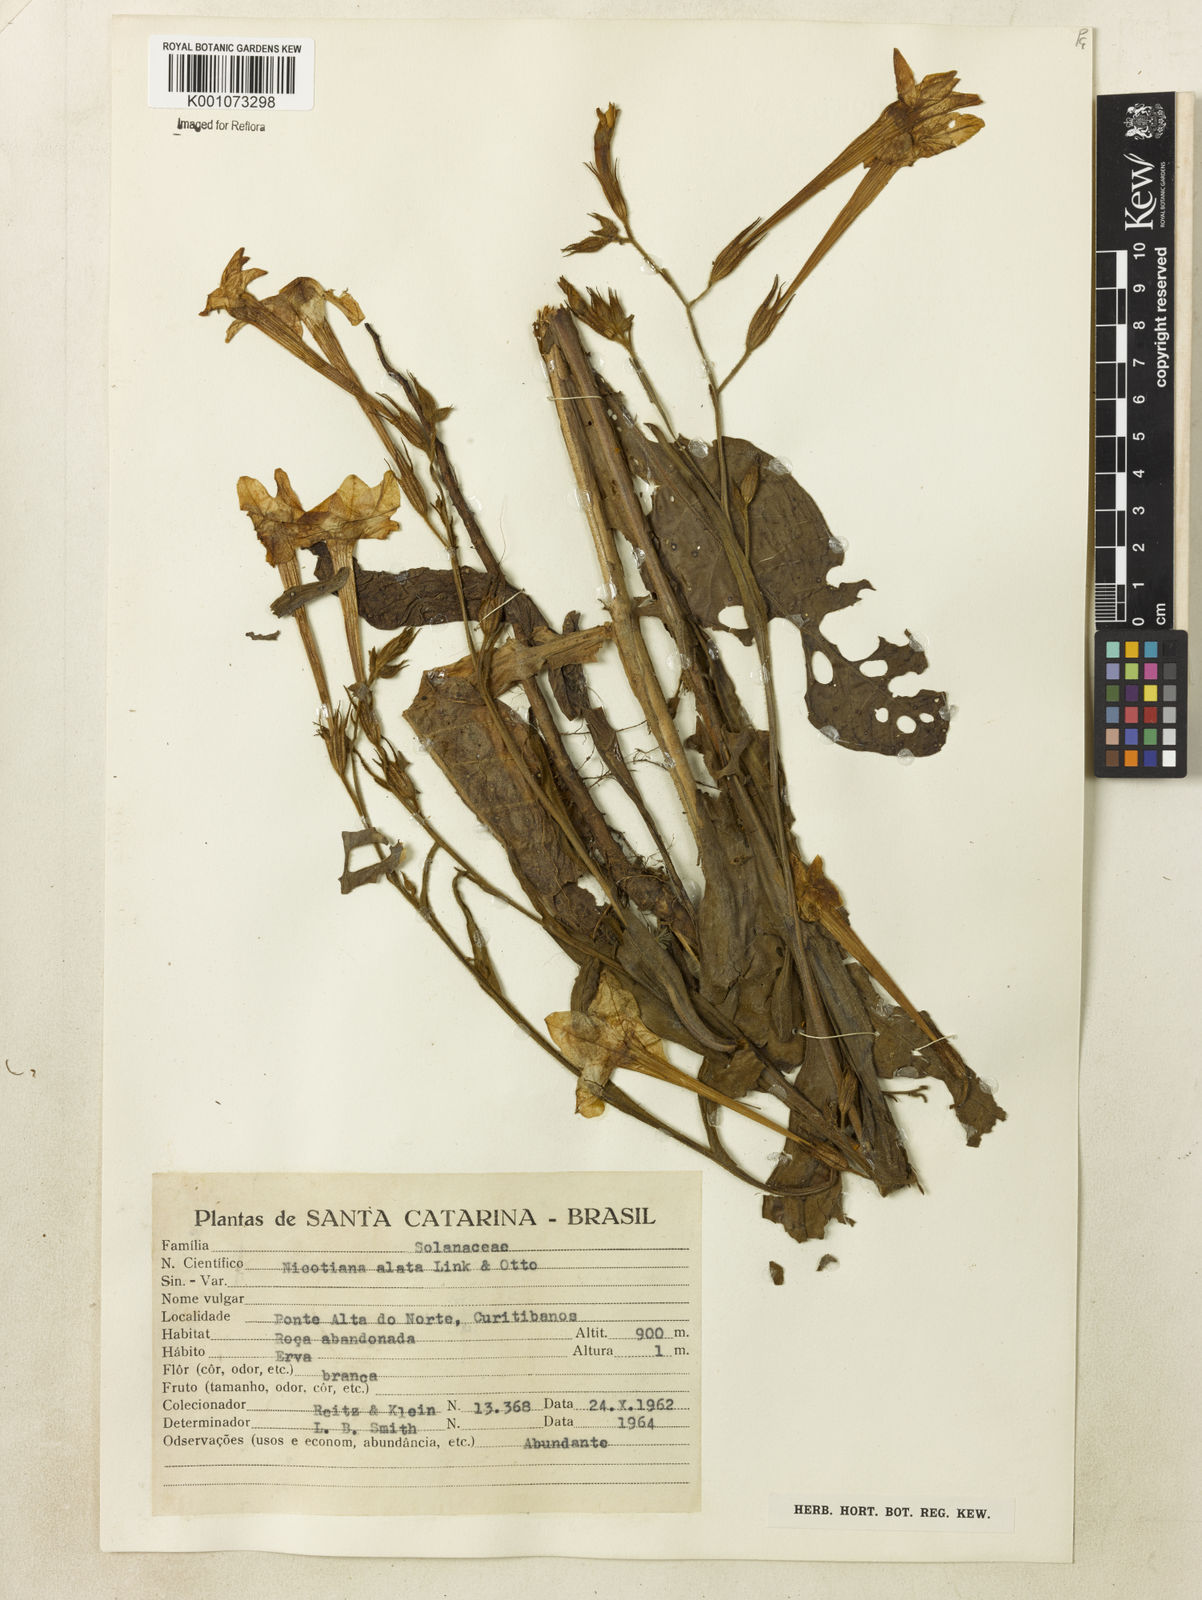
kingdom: Plantae
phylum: Tracheophyta
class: Magnoliopsida
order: Solanales
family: Solanaceae
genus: Nicotiana
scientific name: Nicotiana alata
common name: Jasmine tobacco
